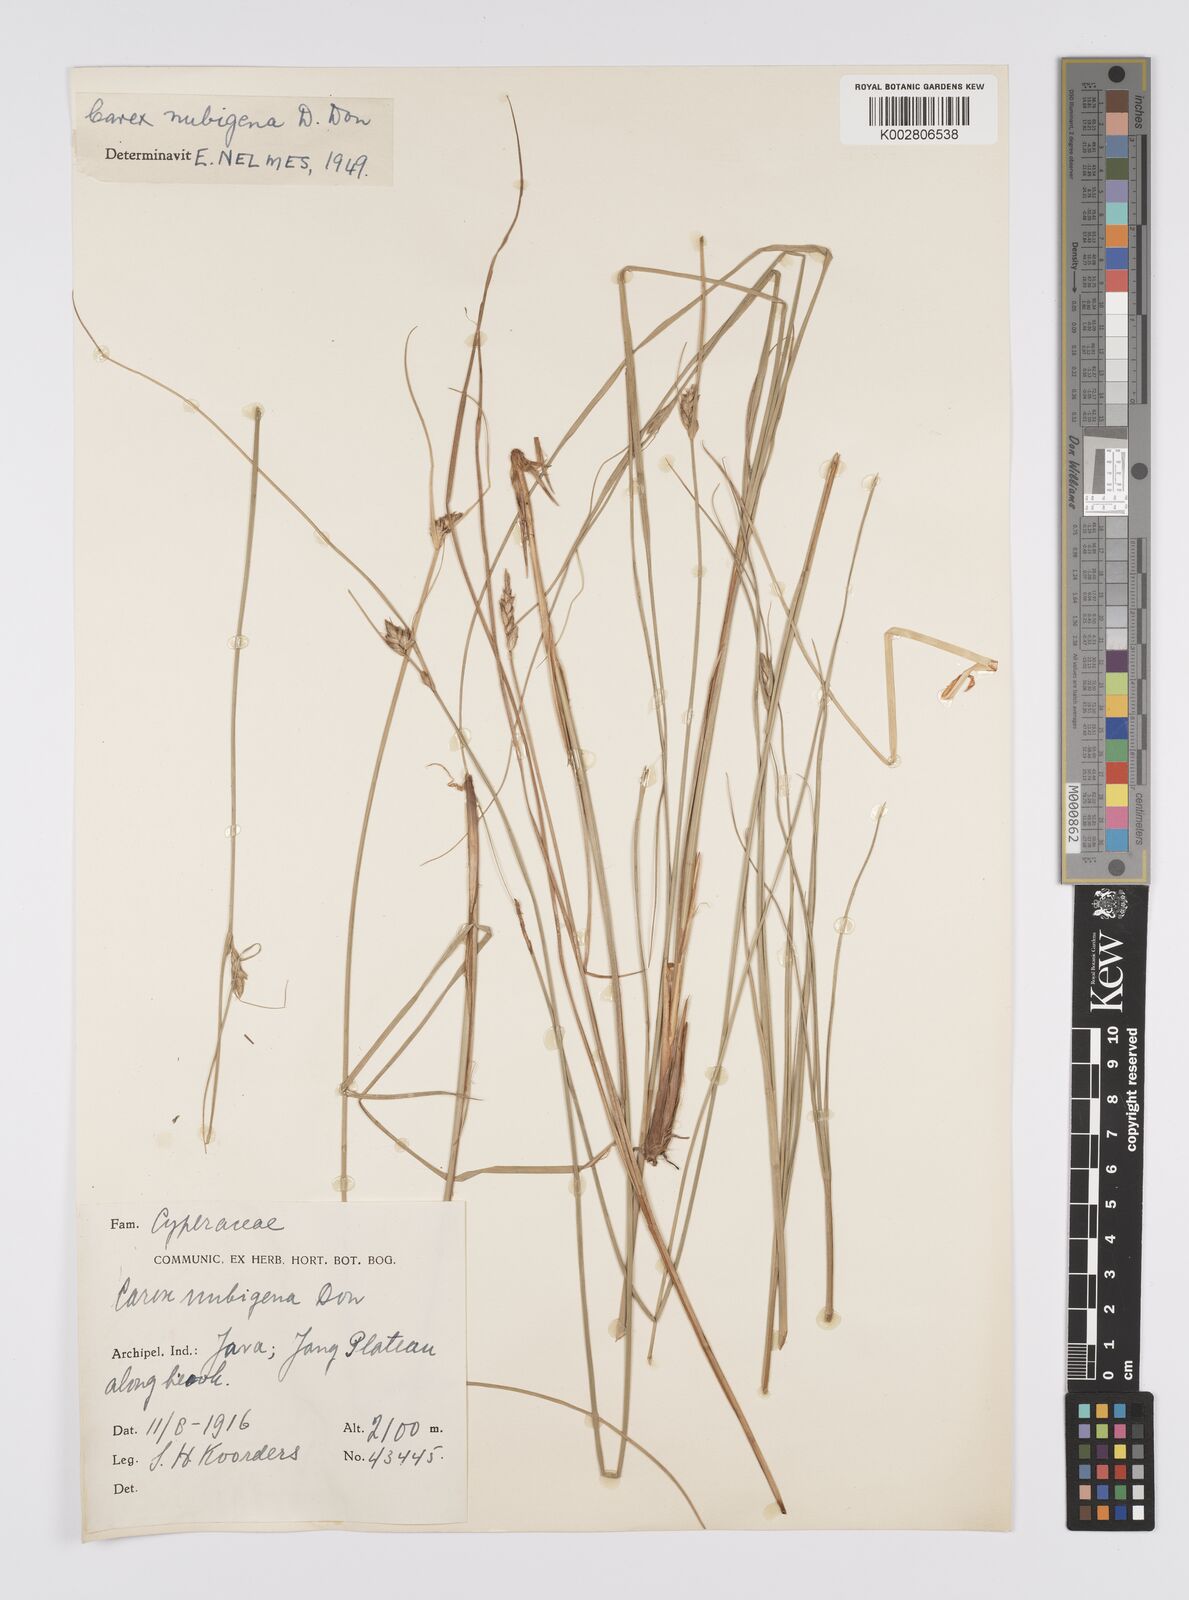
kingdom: Plantae
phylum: Tracheophyta
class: Liliopsida
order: Poales
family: Cyperaceae
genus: Carex
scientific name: Carex
